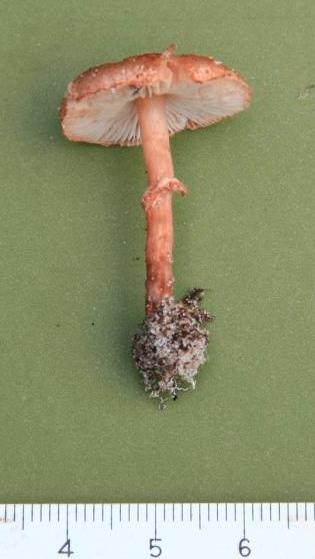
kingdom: Fungi
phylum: Basidiomycota
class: Agaricomycetes
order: Agaricales
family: Agaricaceae
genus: Lepiota
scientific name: Lepiota pseudolilacea
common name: gråbrun parasolhat
